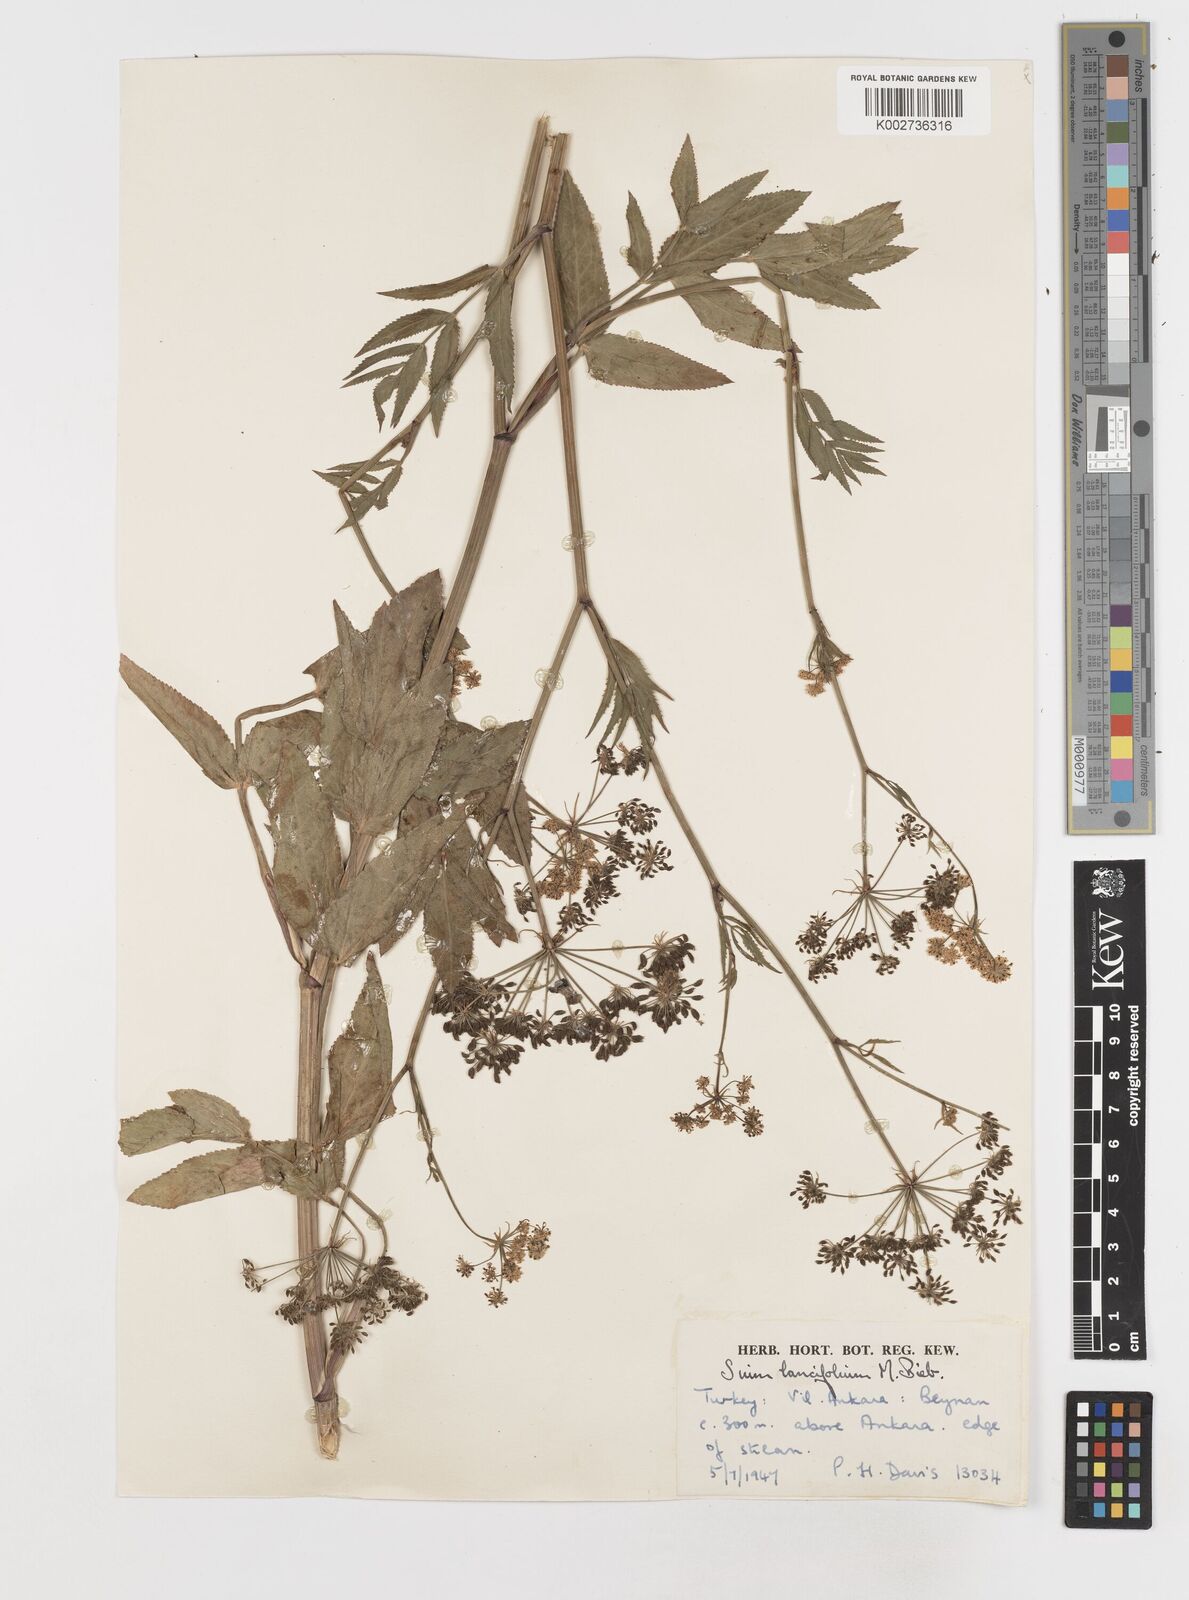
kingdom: Plantae
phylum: Tracheophyta
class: Magnoliopsida
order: Apiales
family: Apiaceae
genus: Sium
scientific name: Sium sisarum
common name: Skirret
